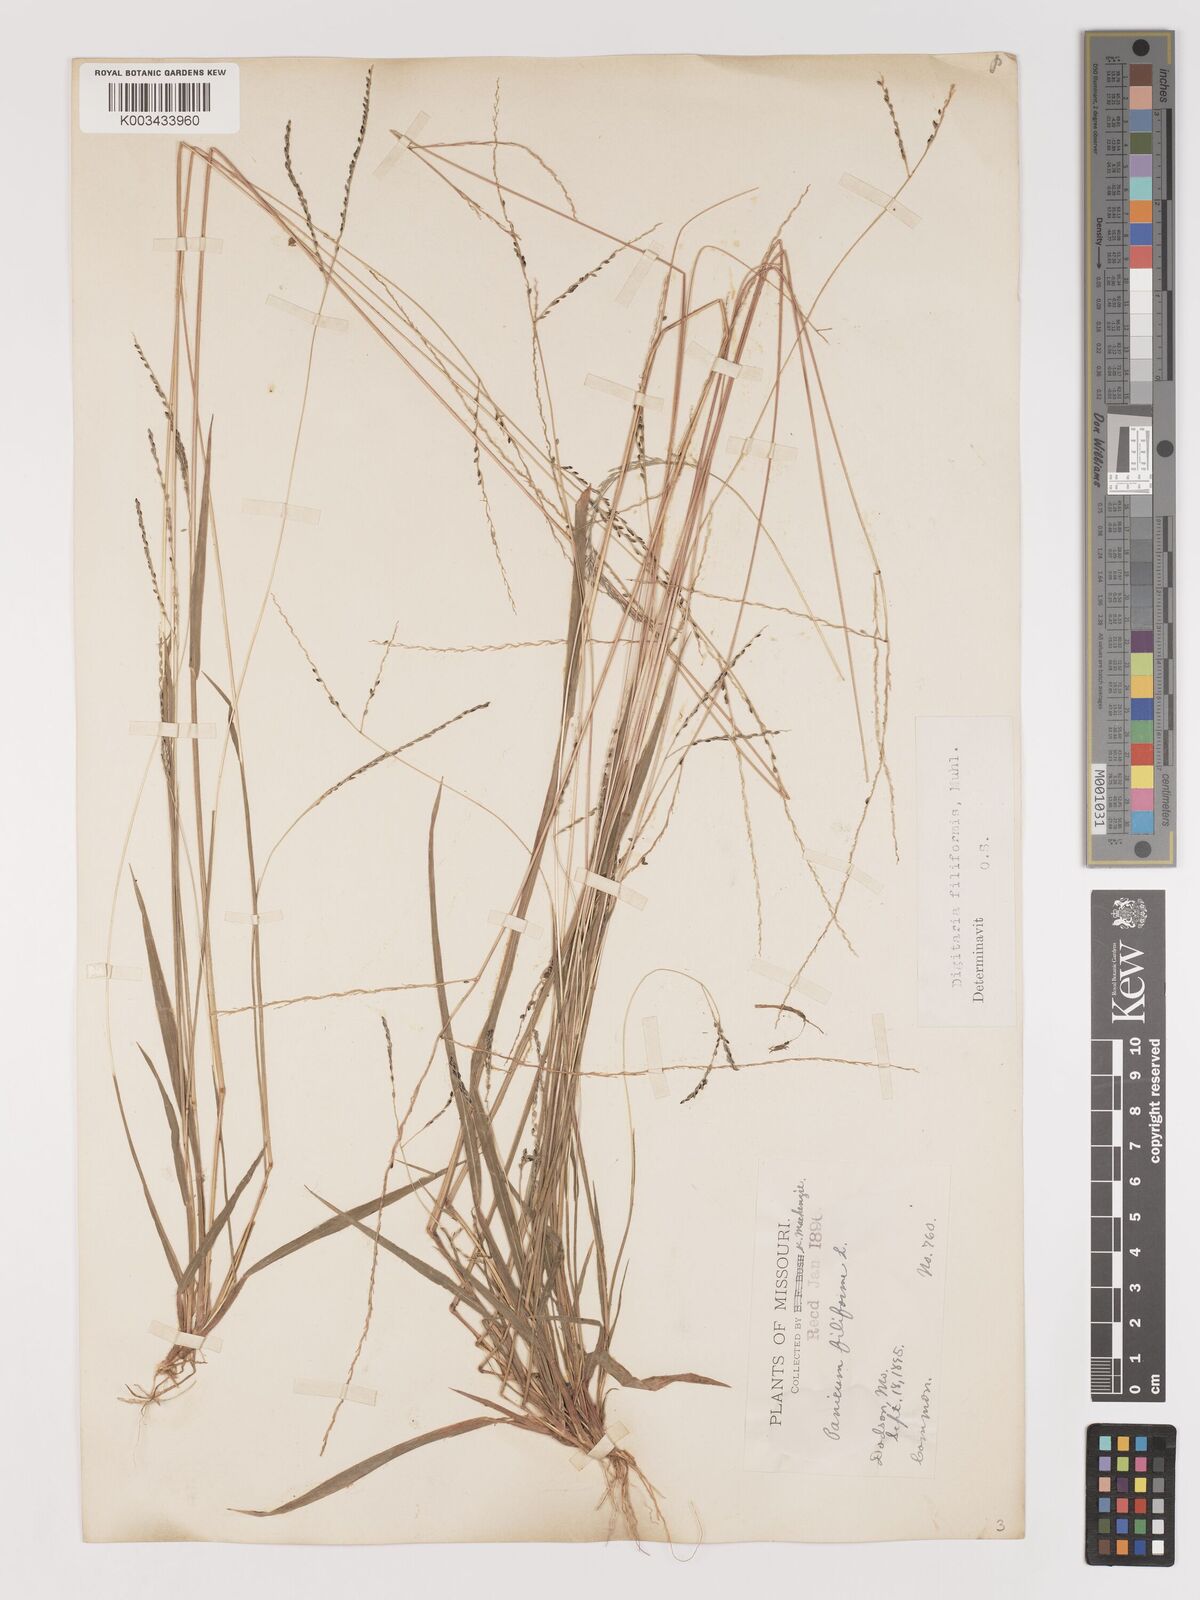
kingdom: Plantae
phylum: Tracheophyta
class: Liliopsida
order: Poales
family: Poaceae
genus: Digitaria
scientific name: Digitaria filiformis
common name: Slender crabgrass
